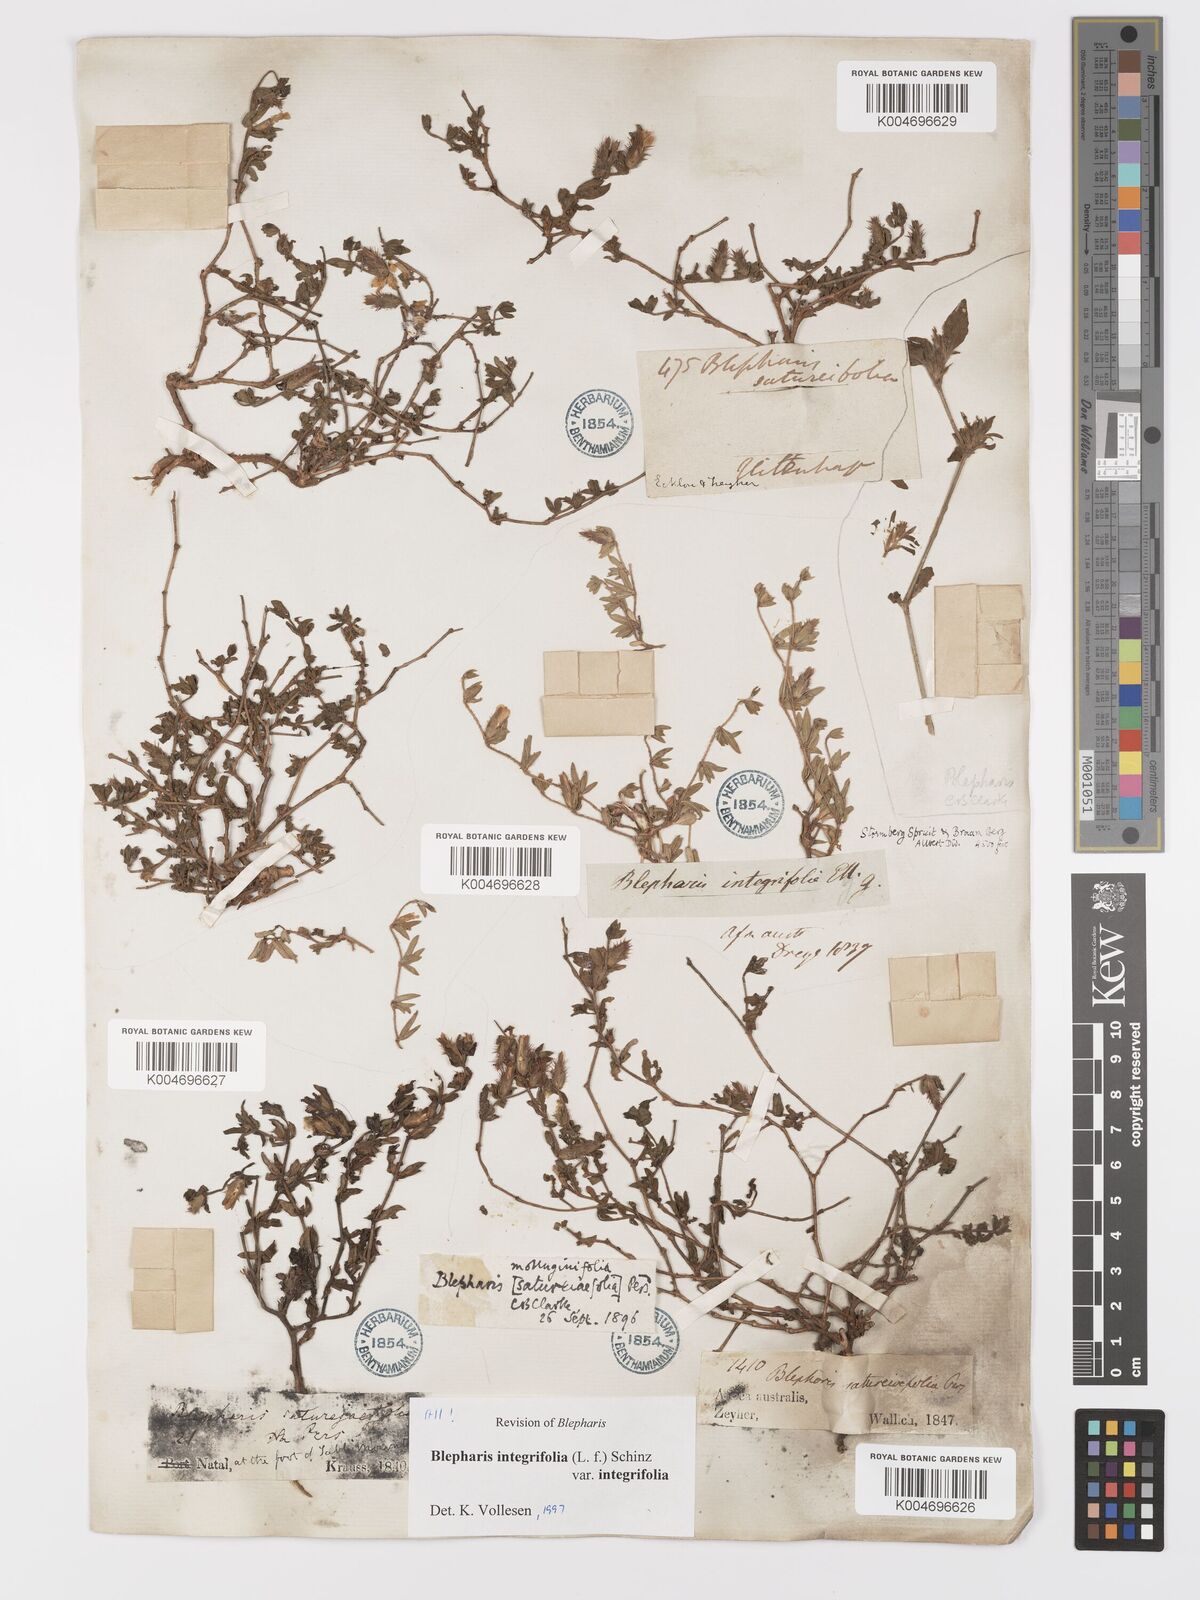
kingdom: Plantae
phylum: Tracheophyta
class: Magnoliopsida
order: Lamiales
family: Acanthaceae
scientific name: Acanthaceae
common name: Acanthaceae
